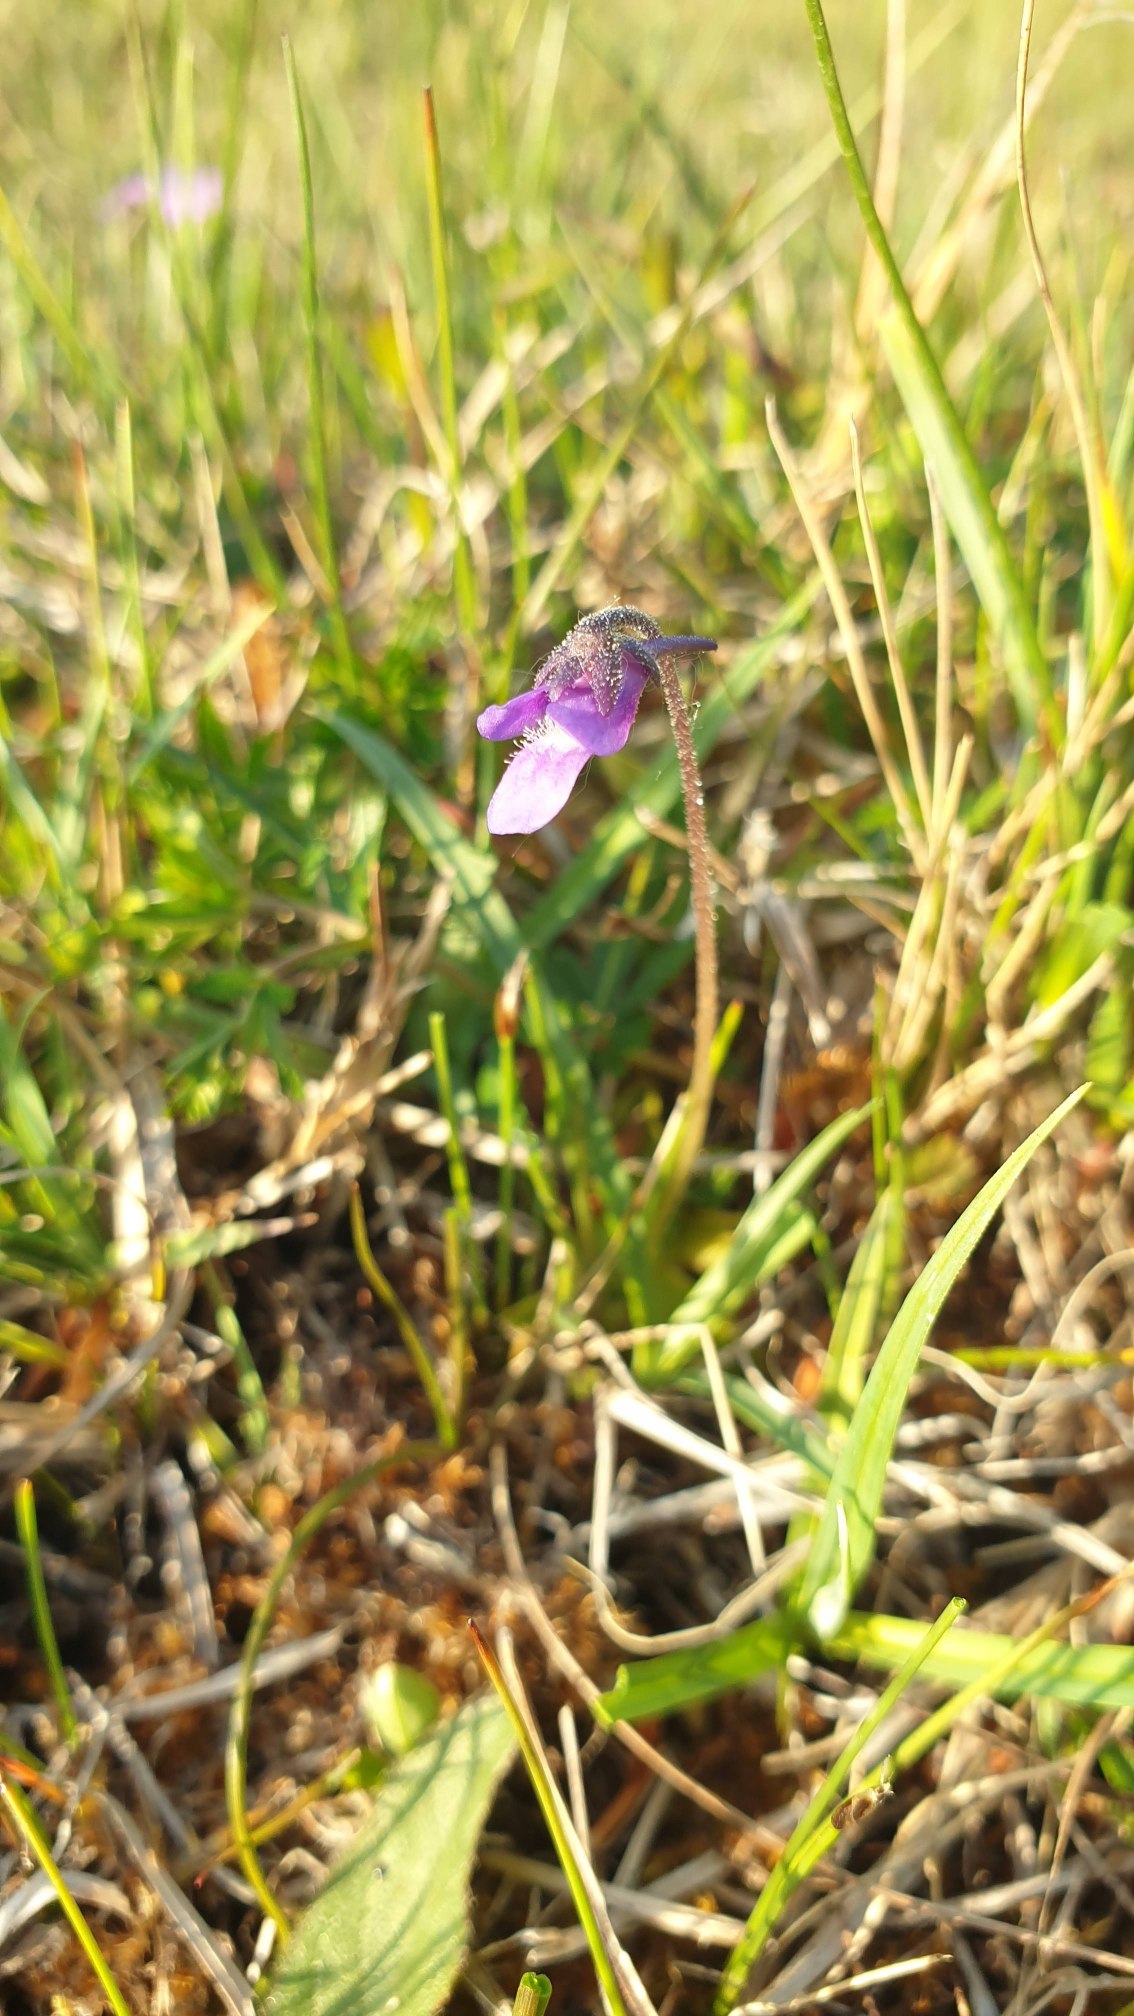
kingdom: Plantae
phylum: Tracheophyta
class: Magnoliopsida
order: Lamiales
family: Lentibulariaceae
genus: Pinguicula
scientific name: Pinguicula vulgaris
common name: Vibefedt
